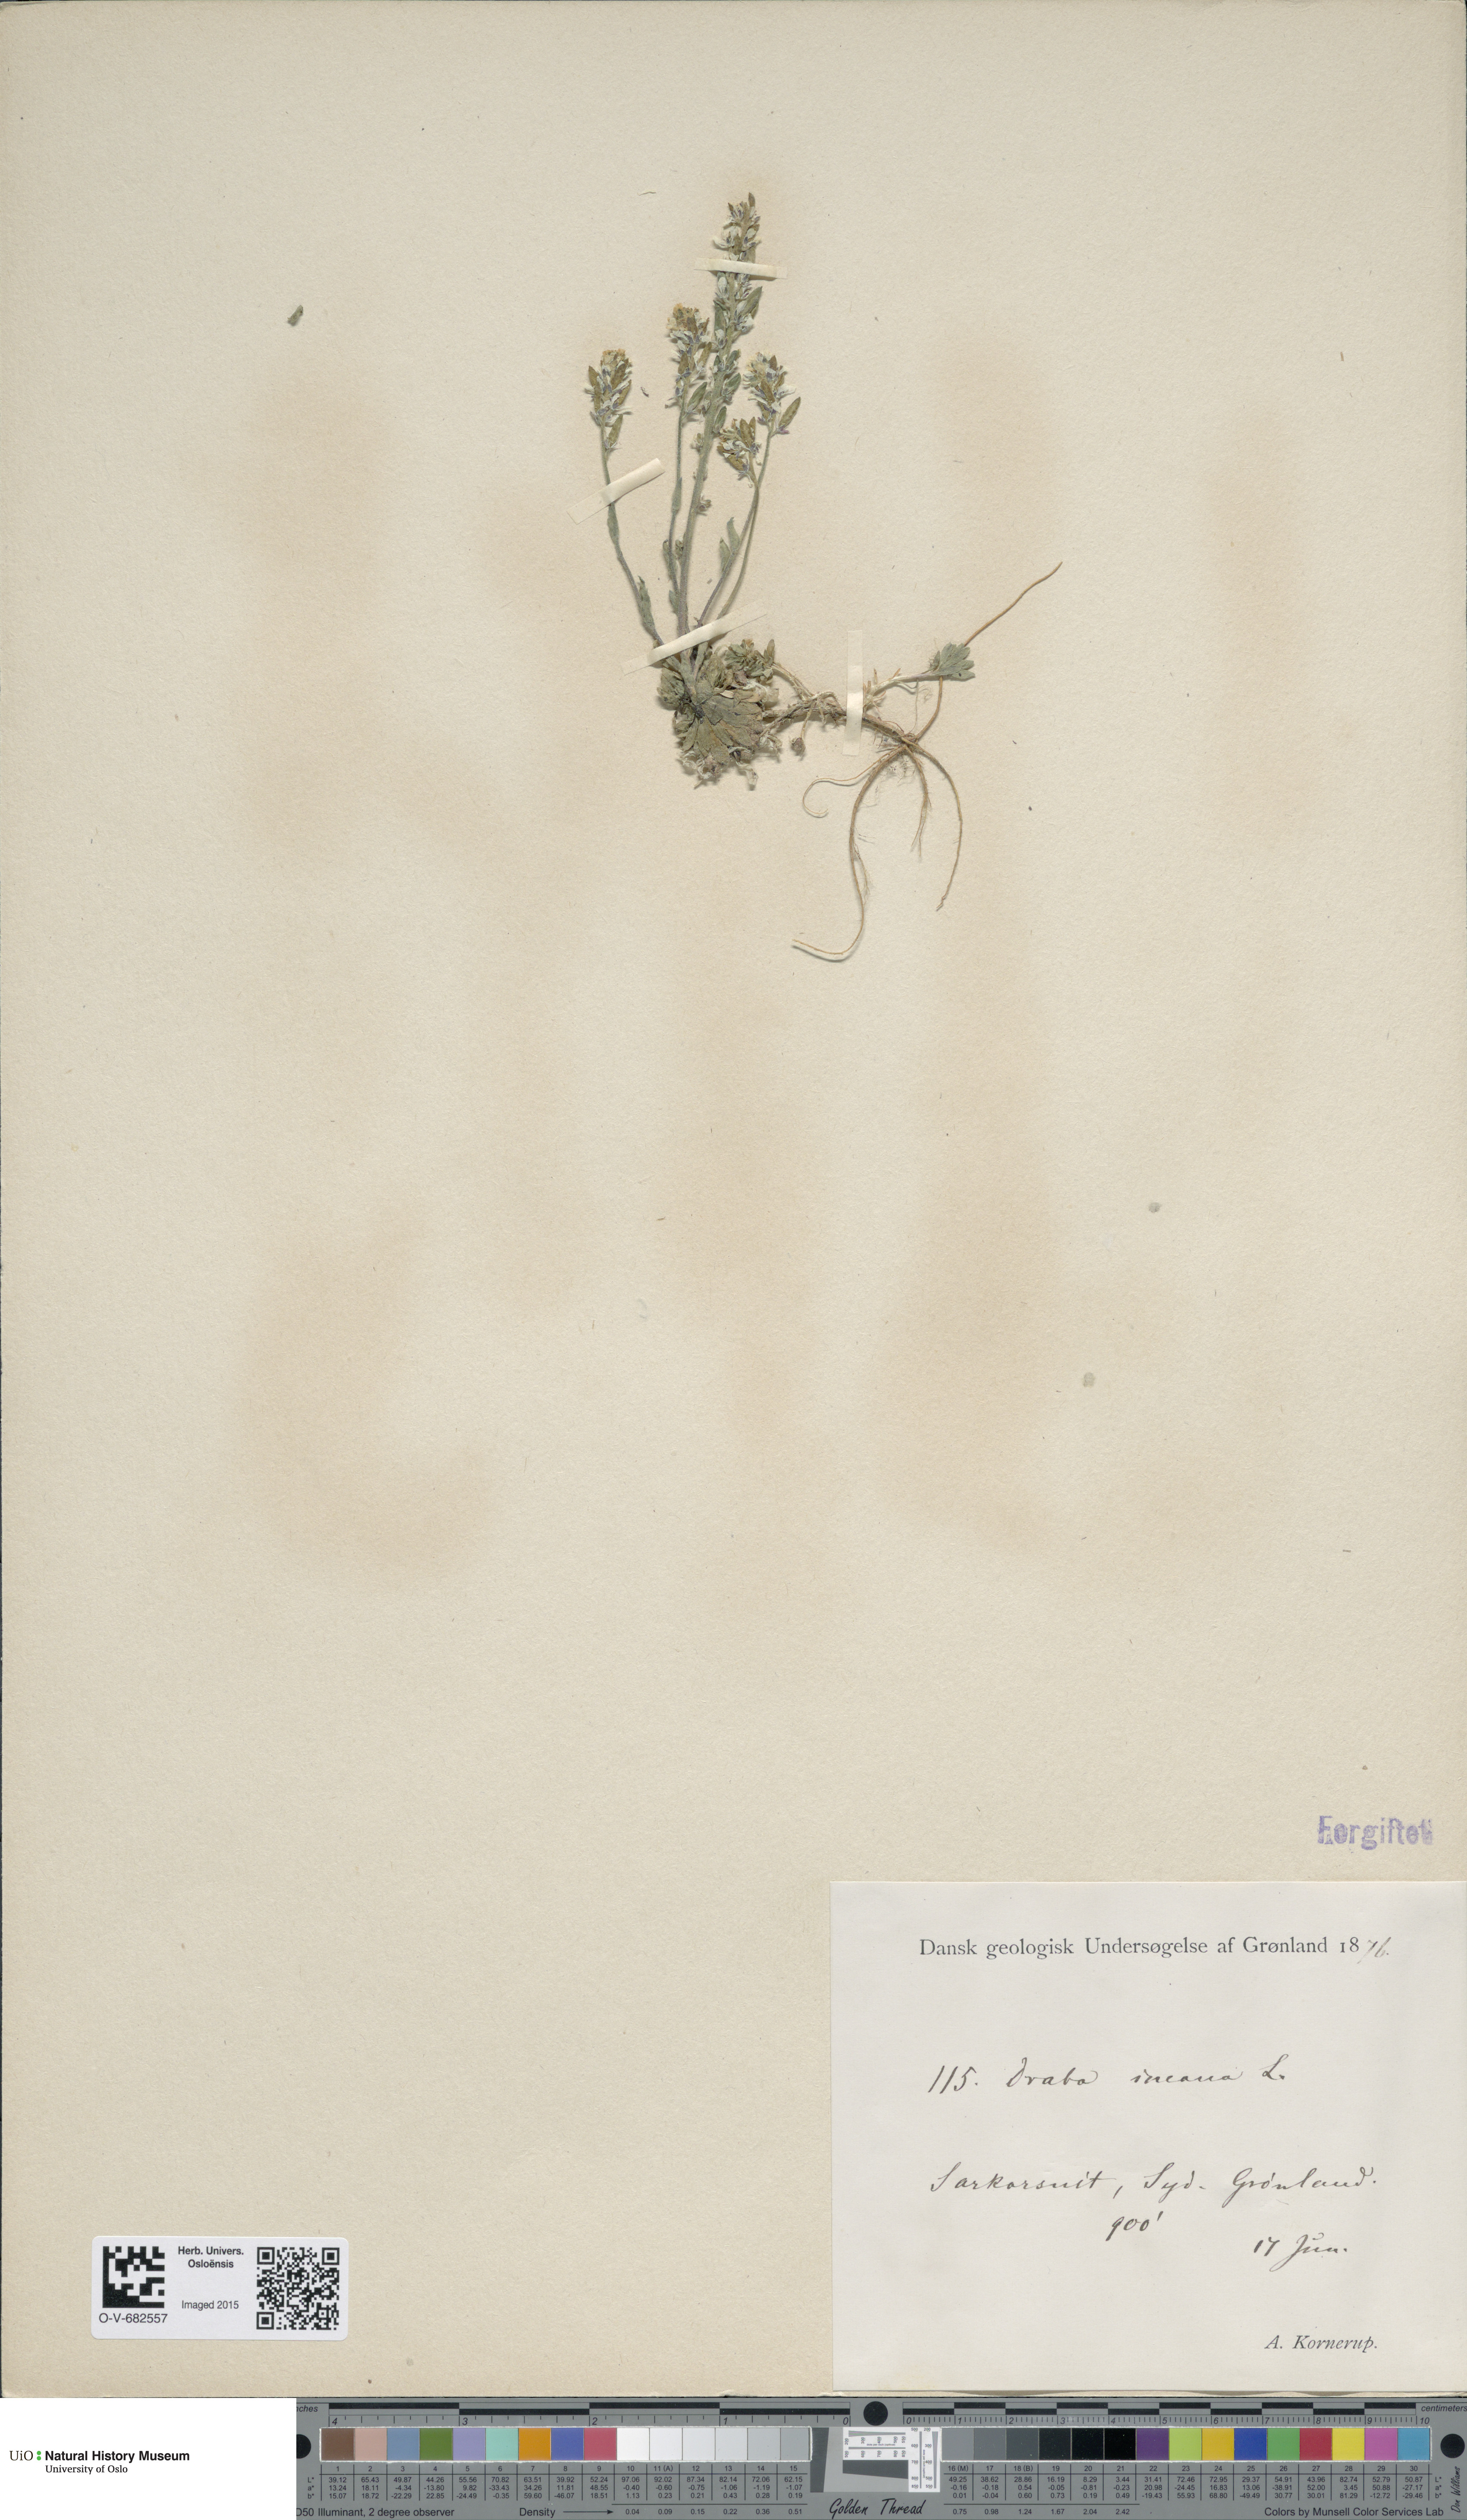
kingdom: Plantae
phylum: Tracheophyta
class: Magnoliopsida
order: Brassicales
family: Brassicaceae
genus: Draba
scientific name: Draba incana
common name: Hoary whitlow-grass
